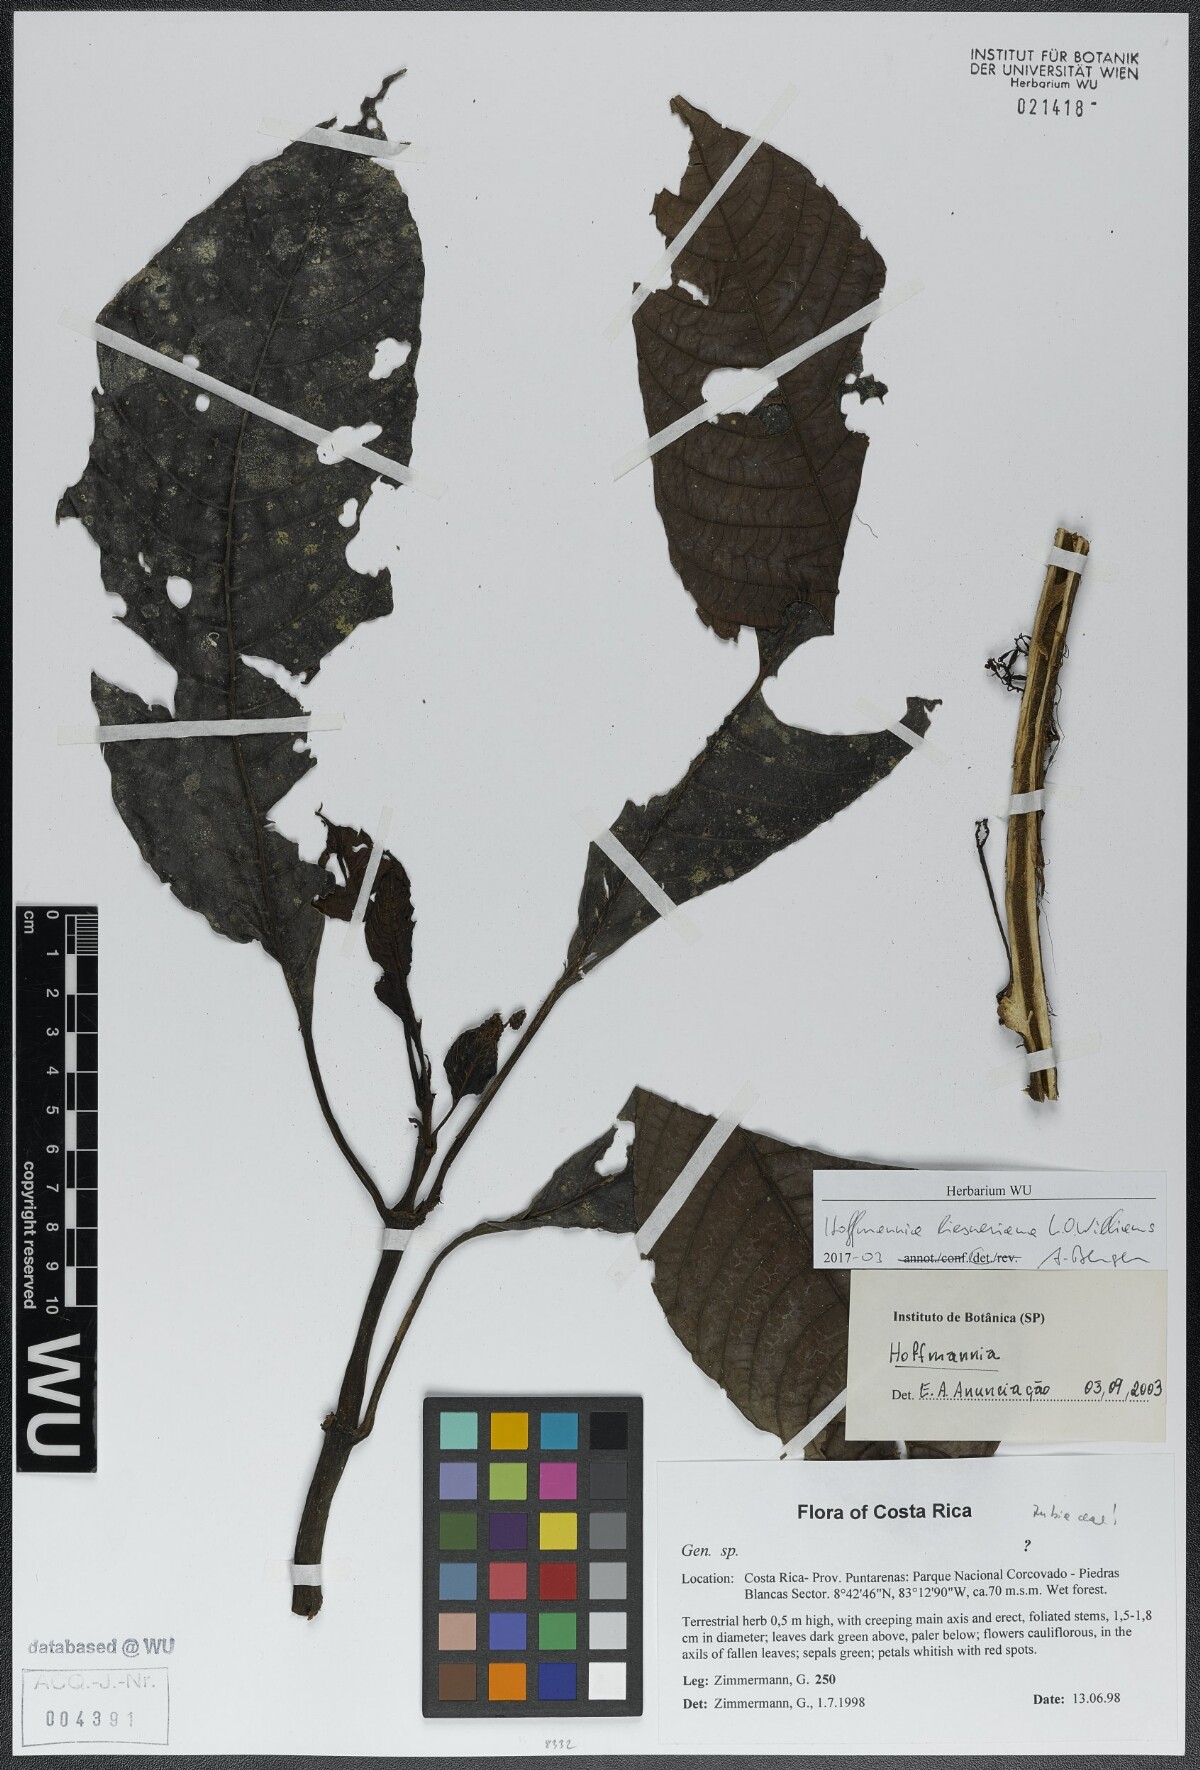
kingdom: Plantae
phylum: Tracheophyta
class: Magnoliopsida
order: Gentianales
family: Rubiaceae
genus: Hoffmannia
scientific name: Hoffmannia liesneriana
